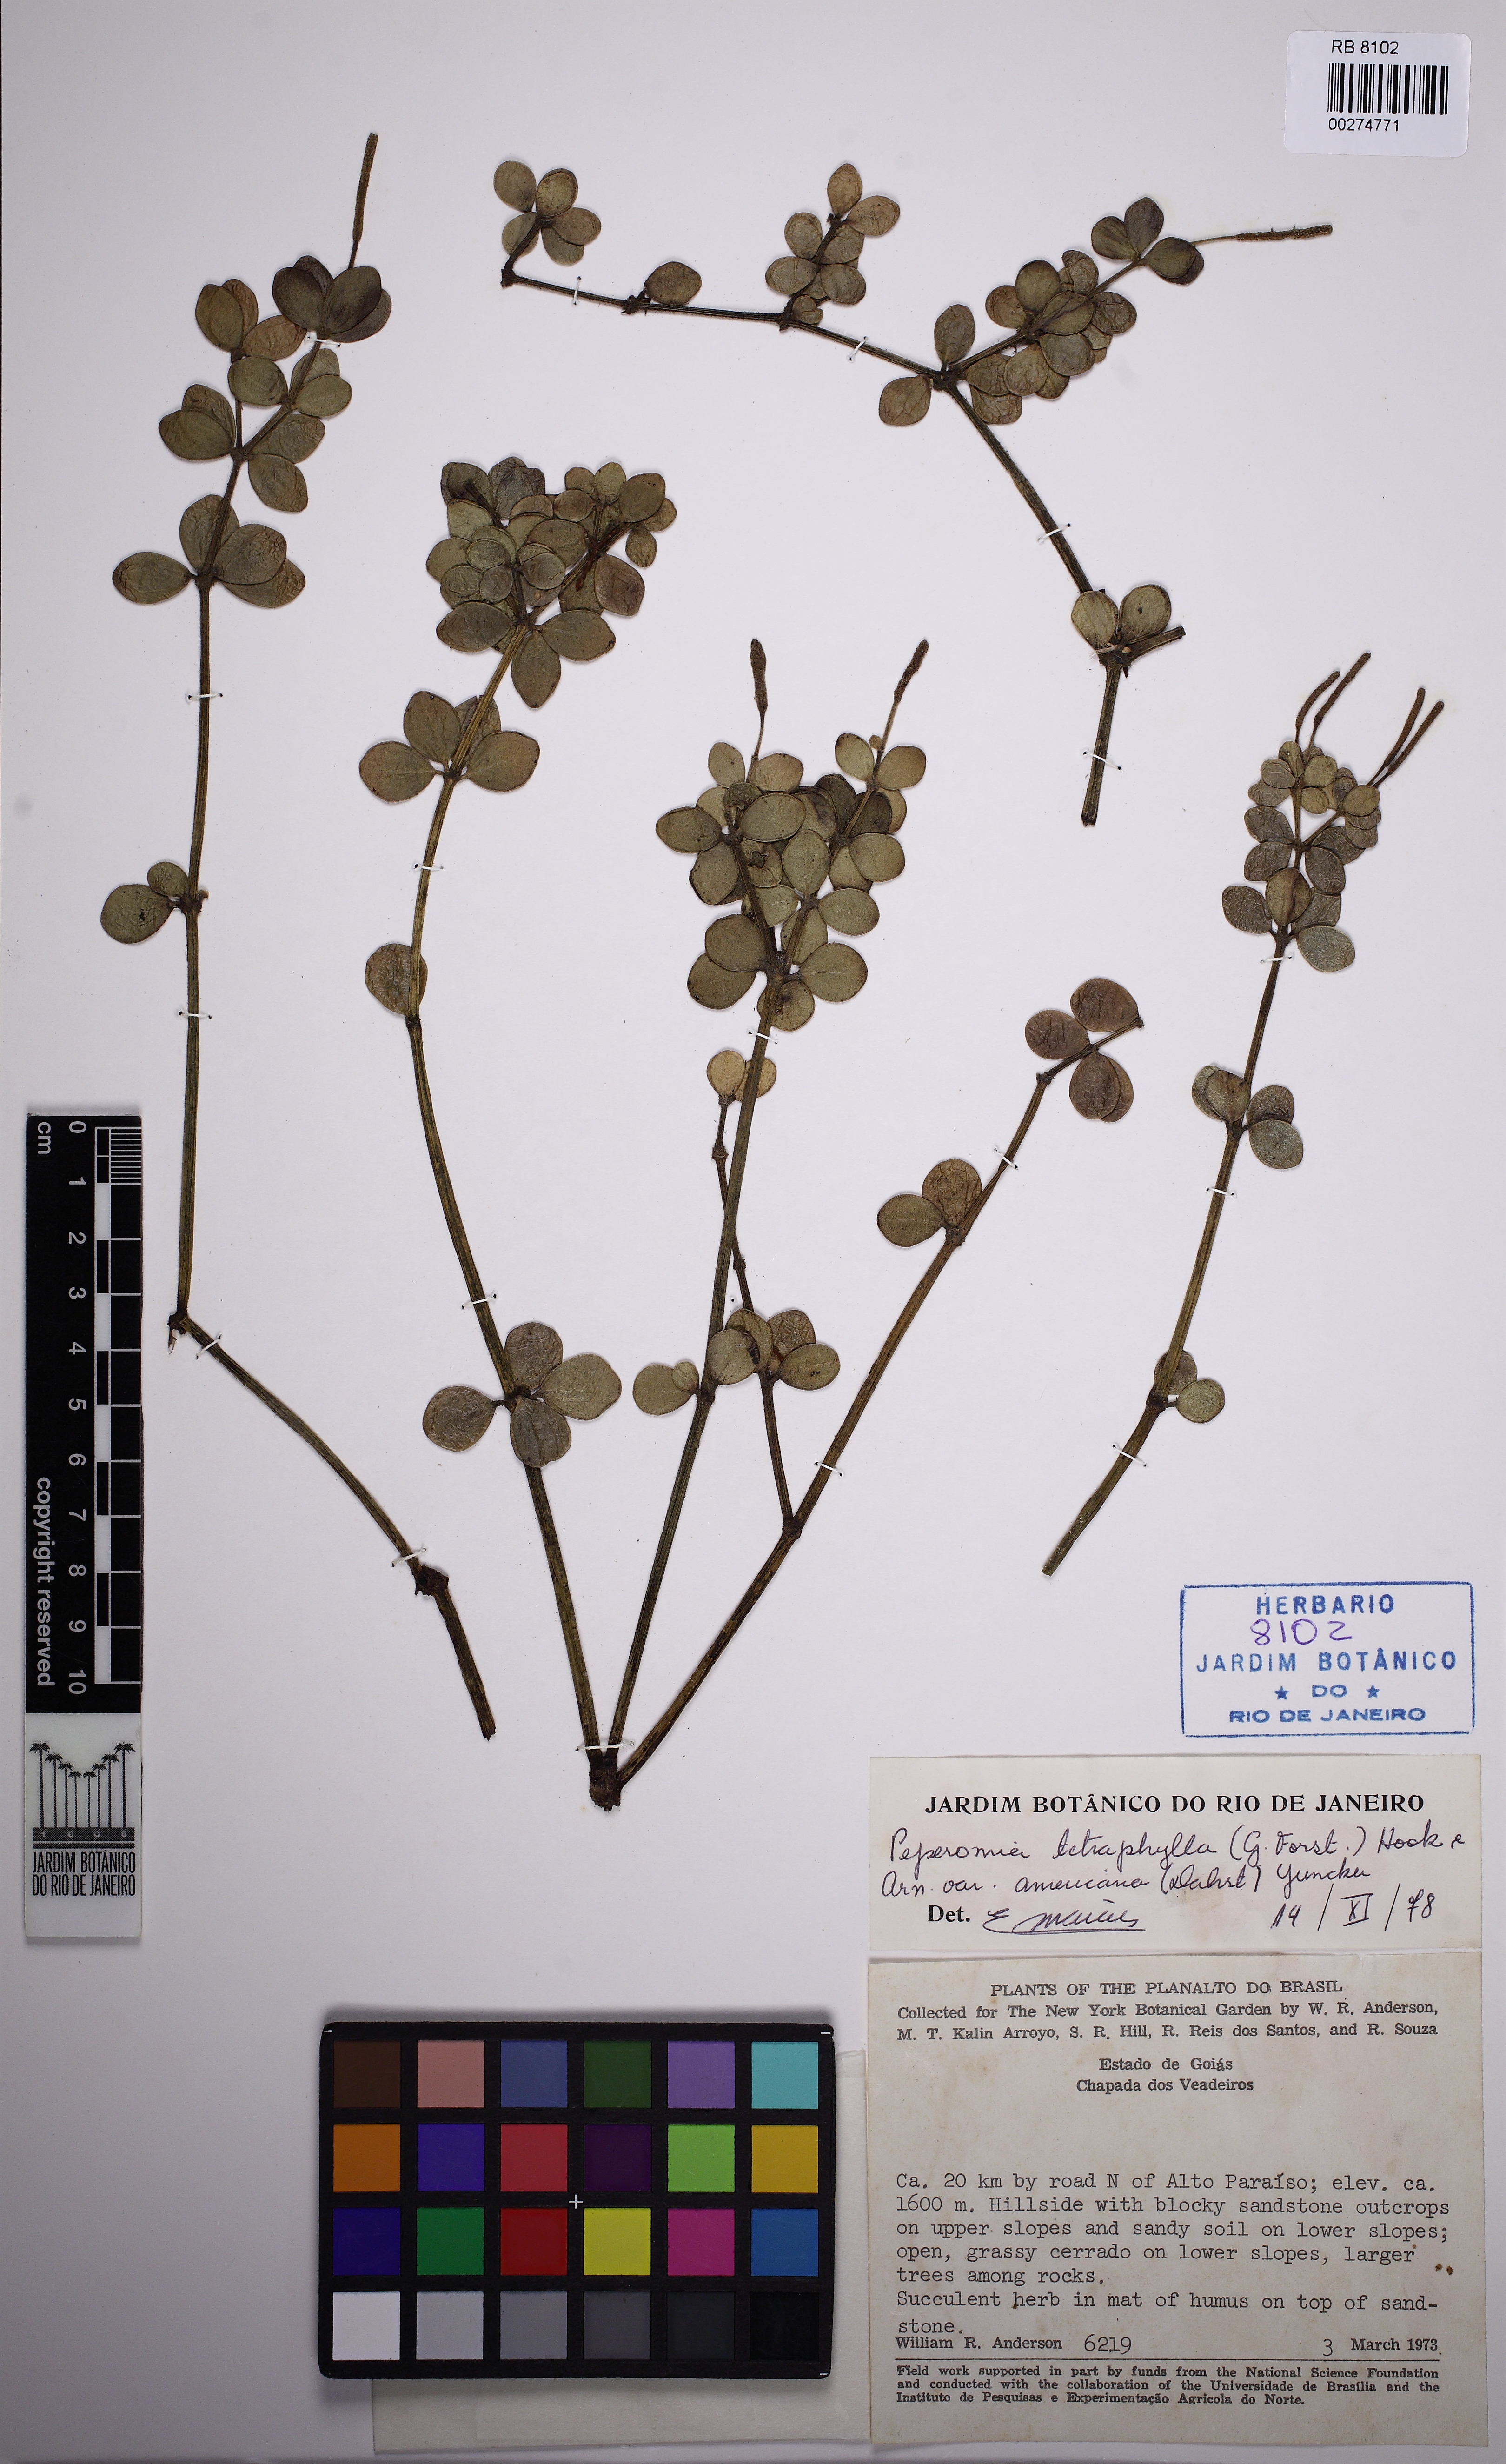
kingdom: Plantae
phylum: Tracheophyta
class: Magnoliopsida
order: Piperales
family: Piperaceae
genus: Peperomia
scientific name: Peperomia tetraphylla
